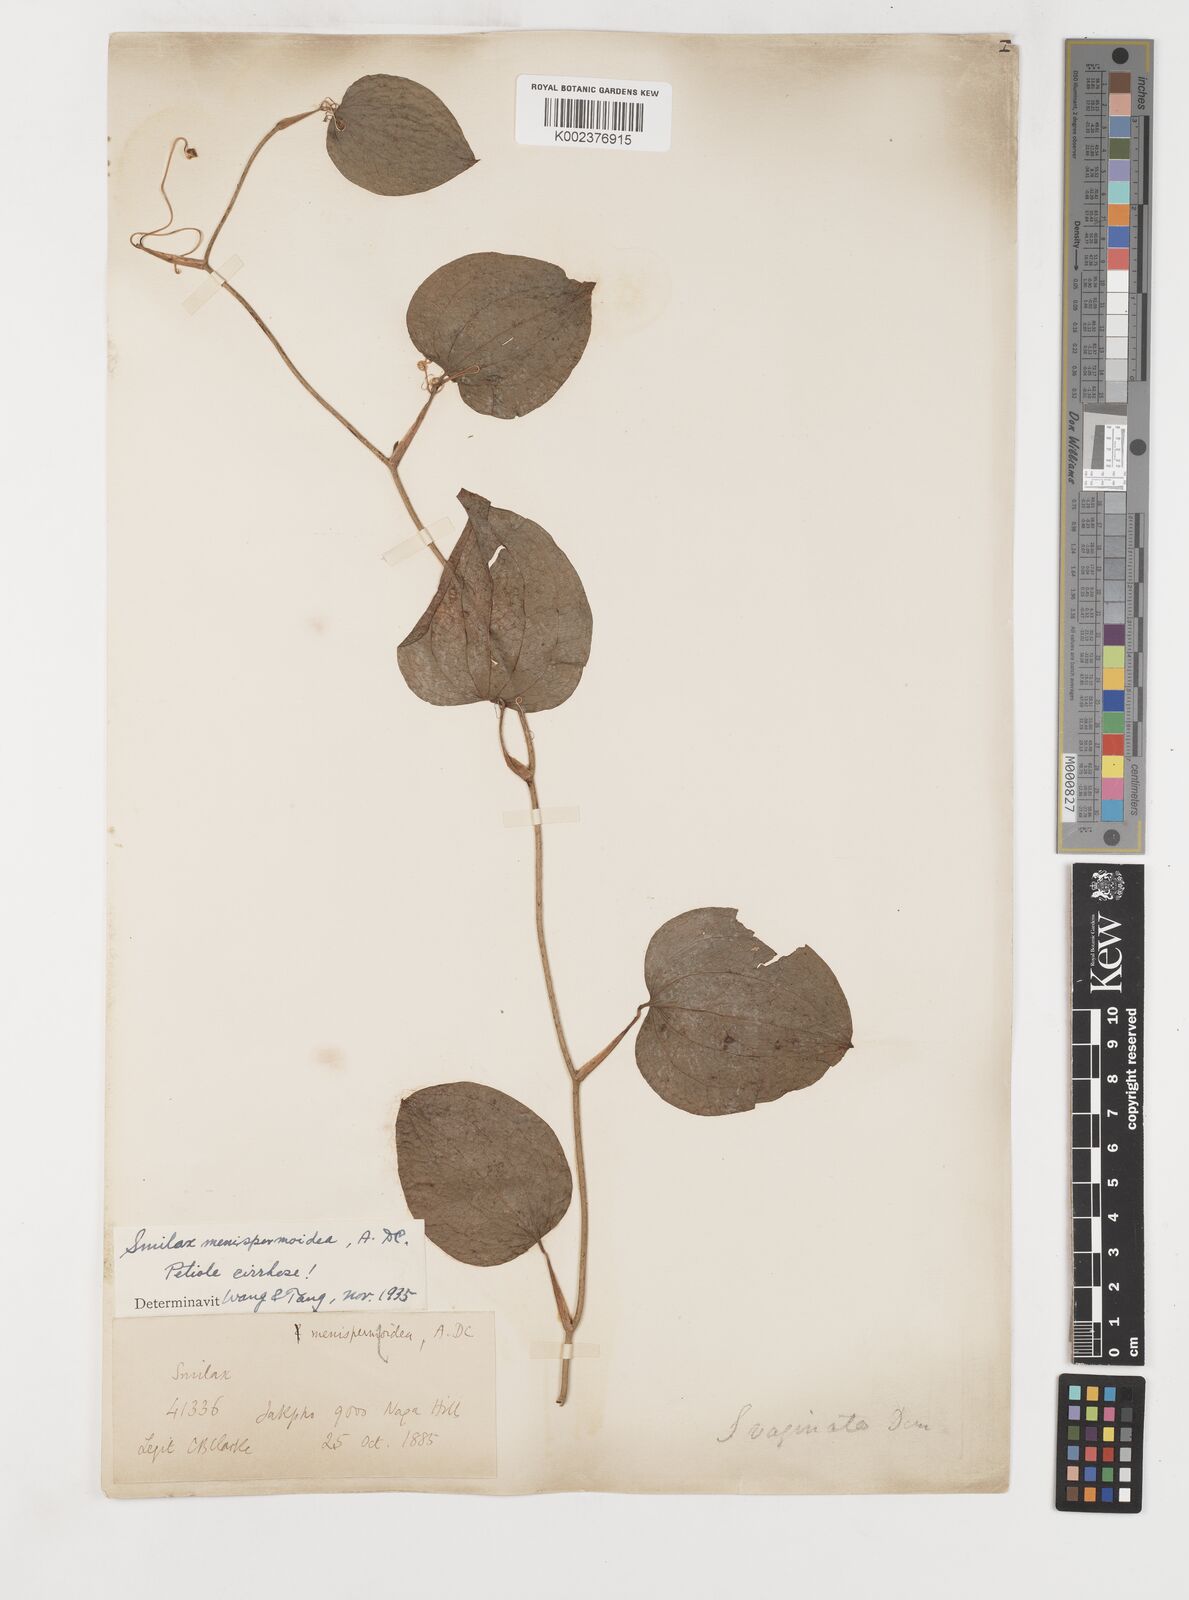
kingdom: Plantae
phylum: Tracheophyta
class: Liliopsida
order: Liliales
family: Smilacaceae
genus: Smilax
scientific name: Smilax menispermoidea
